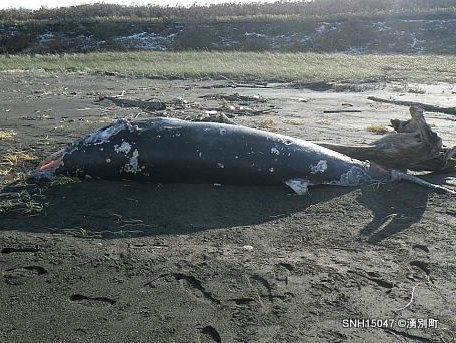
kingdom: Animalia
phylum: Chordata
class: Mammalia
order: Cetacea
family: Balaenopteridae
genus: Balaenoptera
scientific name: Balaenoptera acutorostrata
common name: Minke whale
